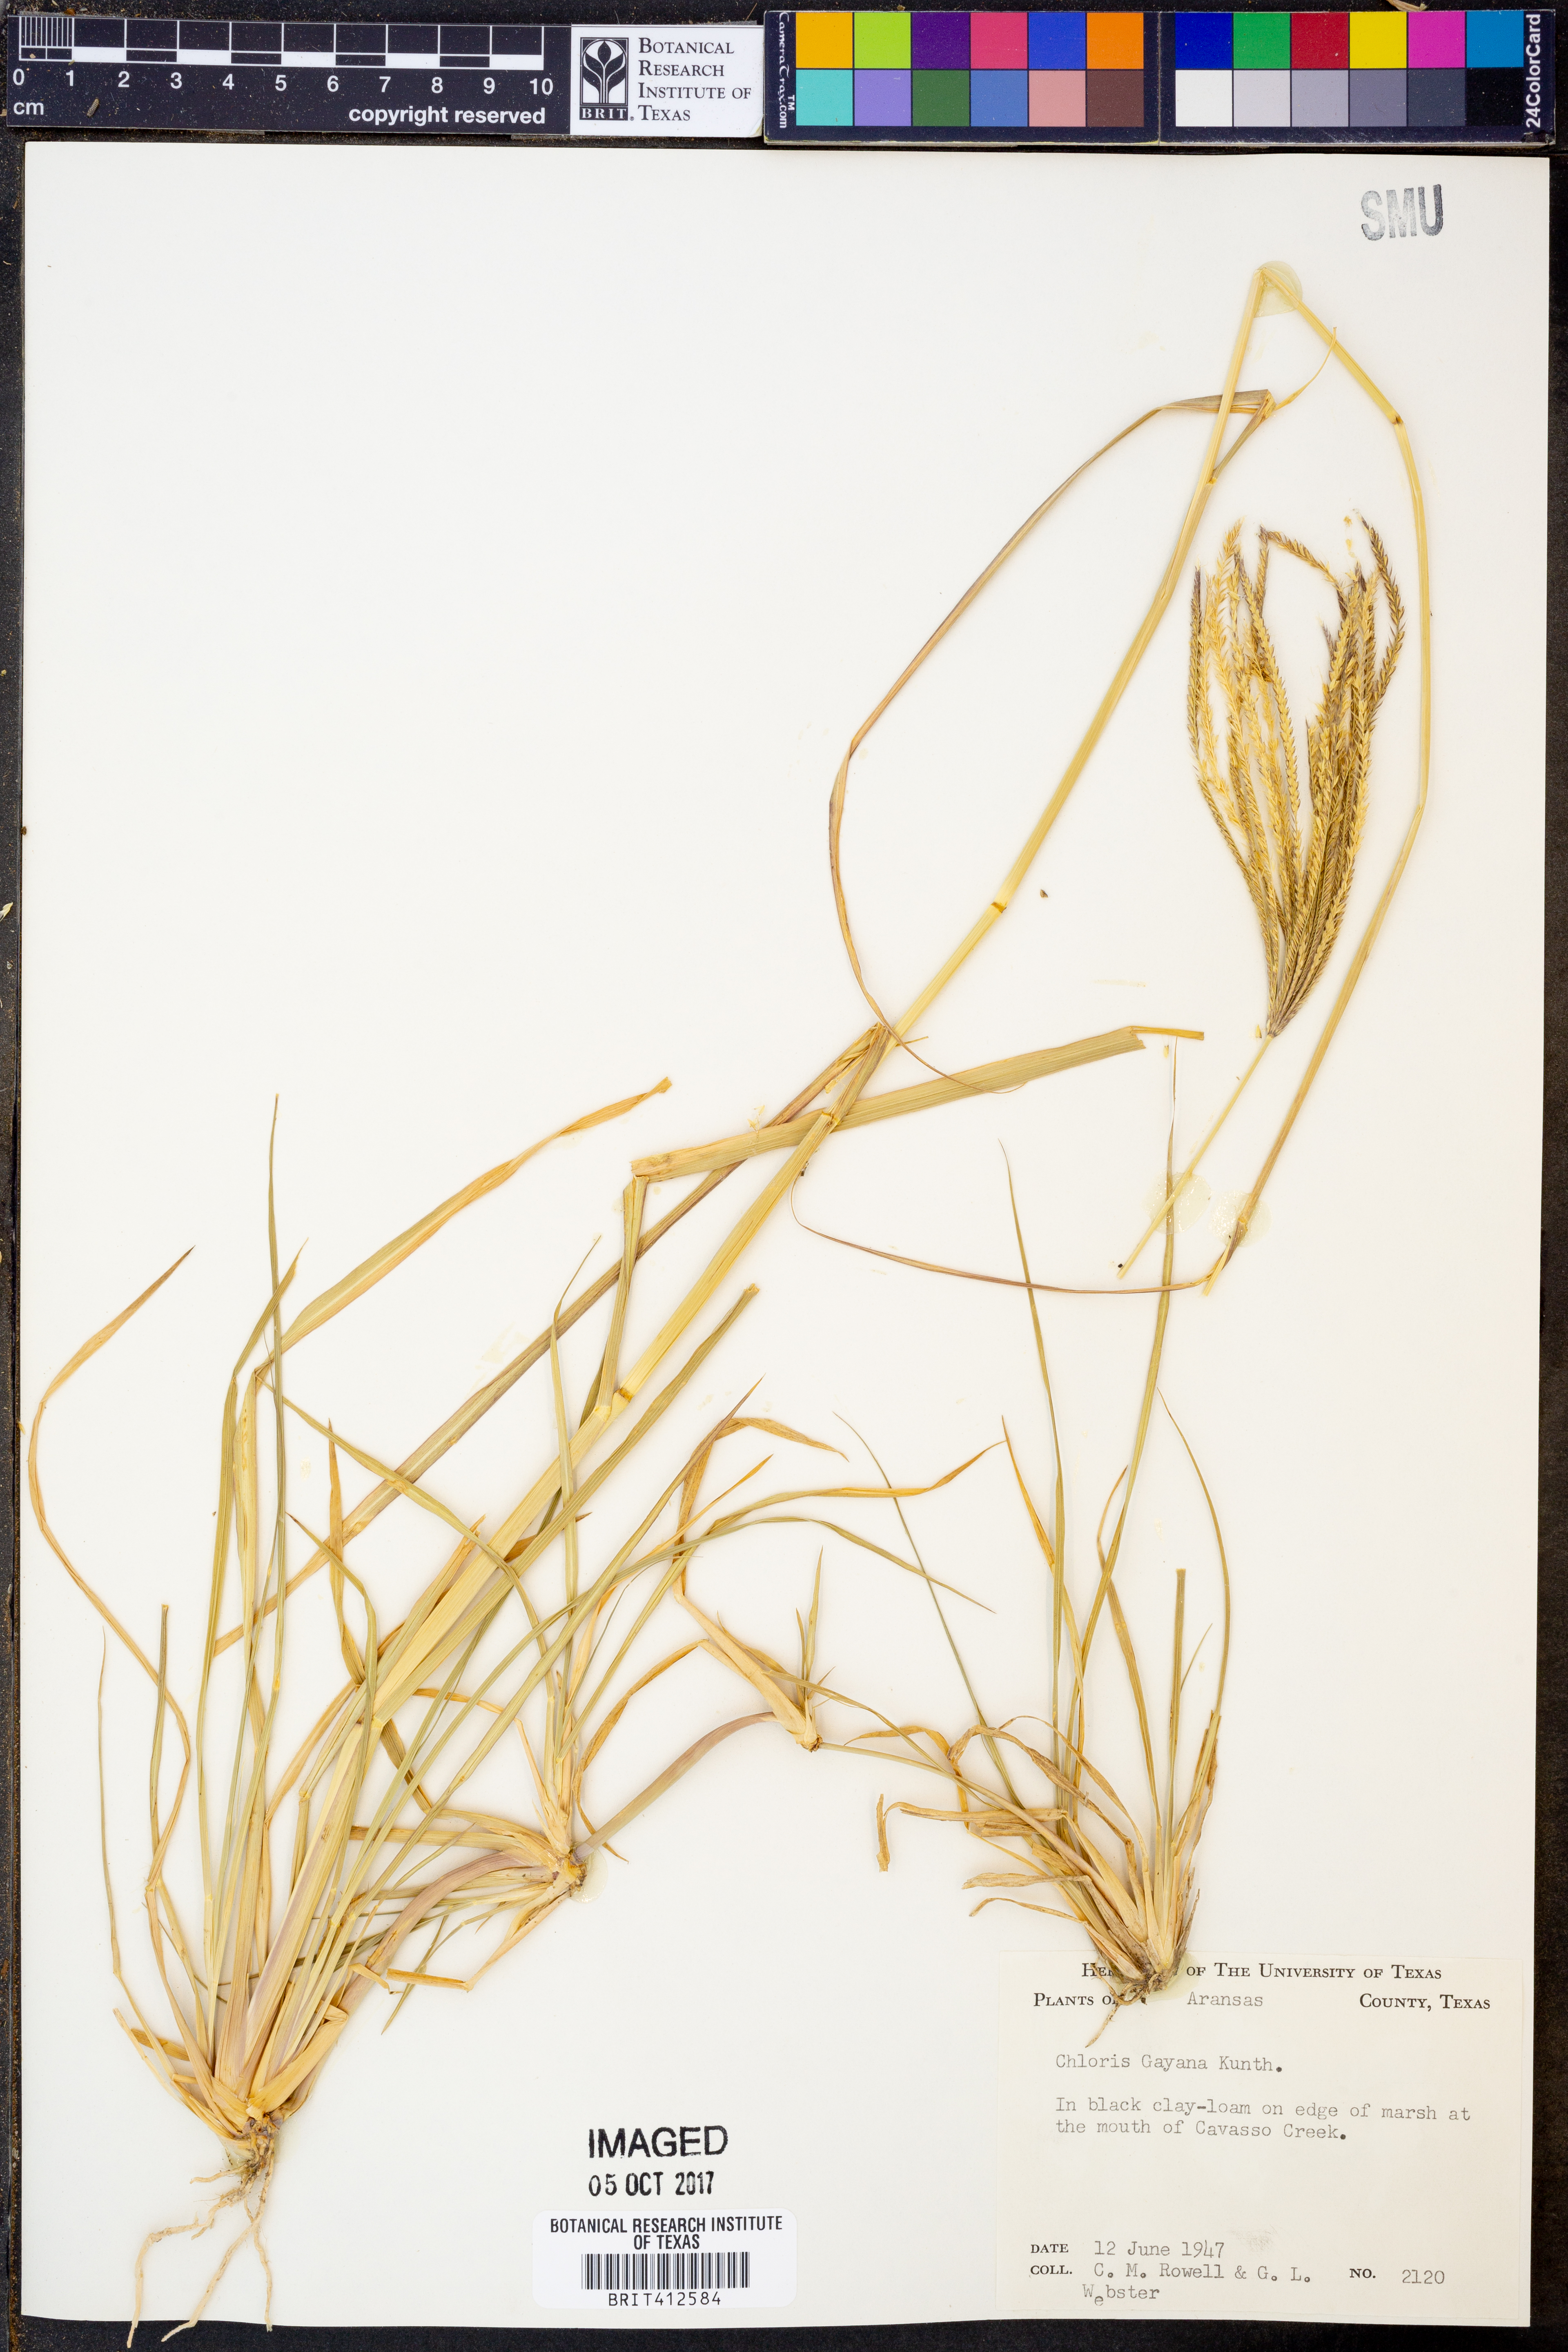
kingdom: Plantae
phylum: Tracheophyta
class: Liliopsida
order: Poales
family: Poaceae
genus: Chloris
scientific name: Chloris gayana
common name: Rhodes grass
